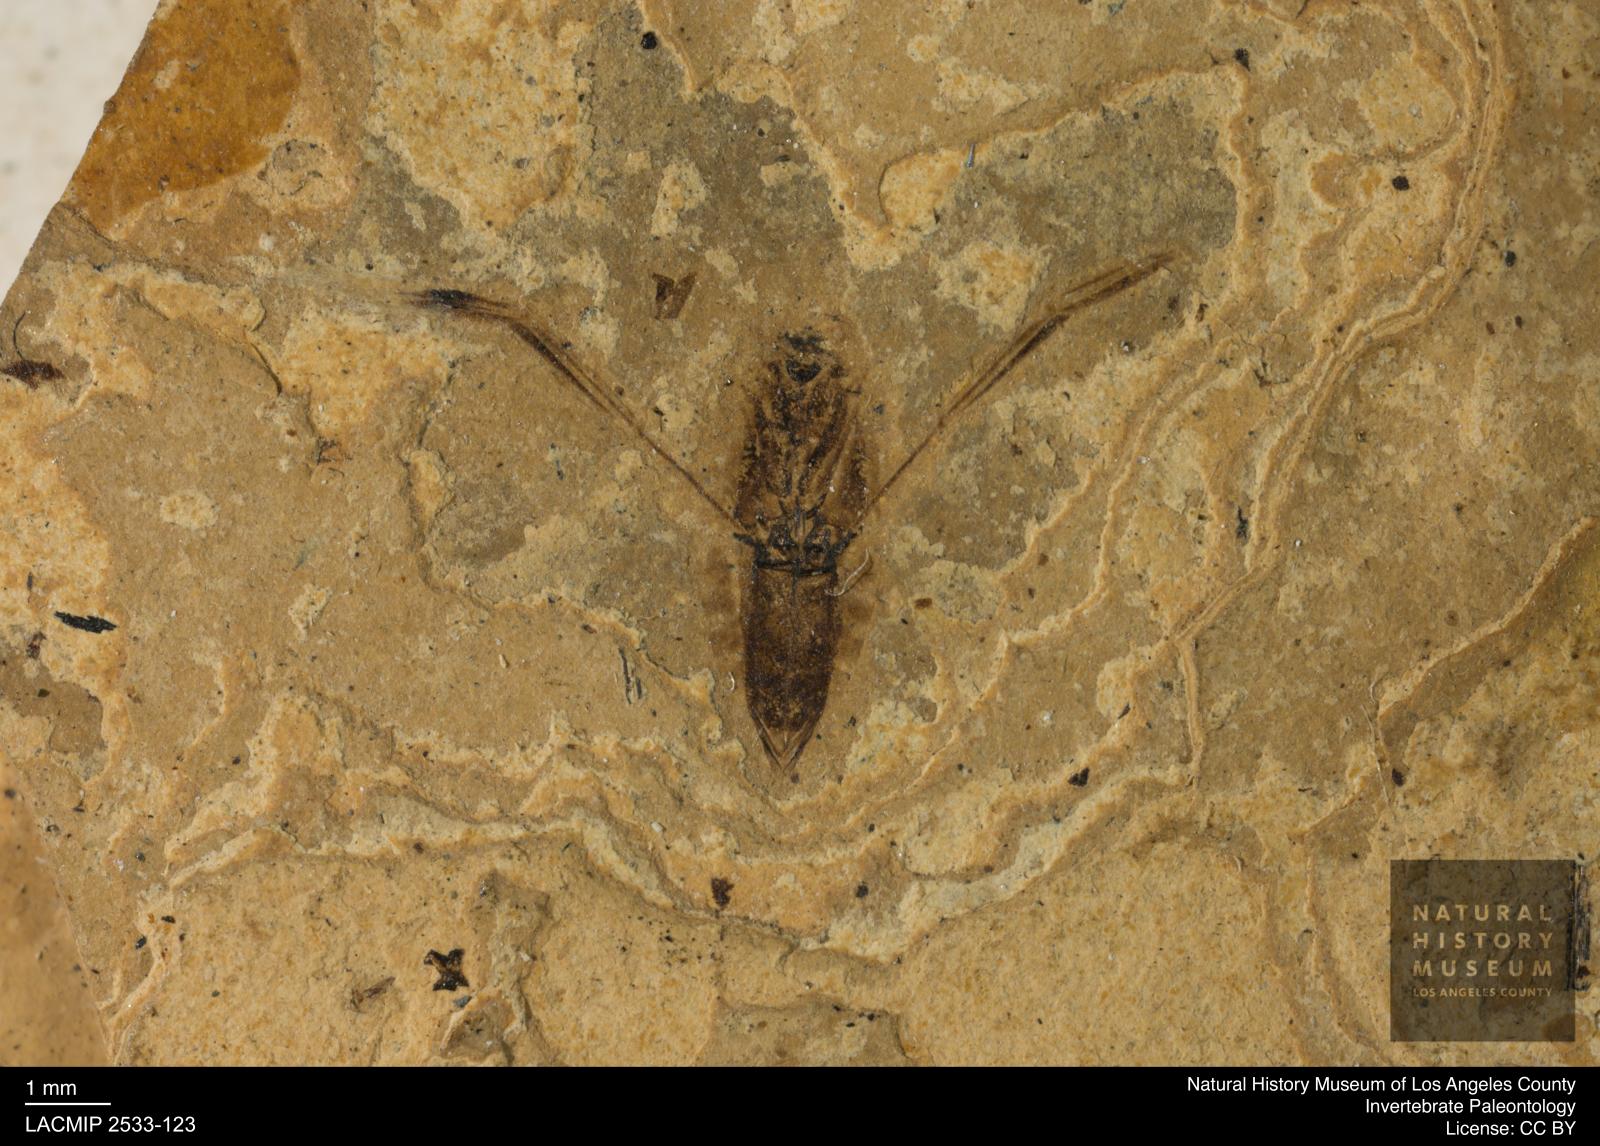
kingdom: Animalia
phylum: Arthropoda
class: Insecta
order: Hemiptera
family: Notonectidae
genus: Anisops
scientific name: Anisops Notonecta heydeni
